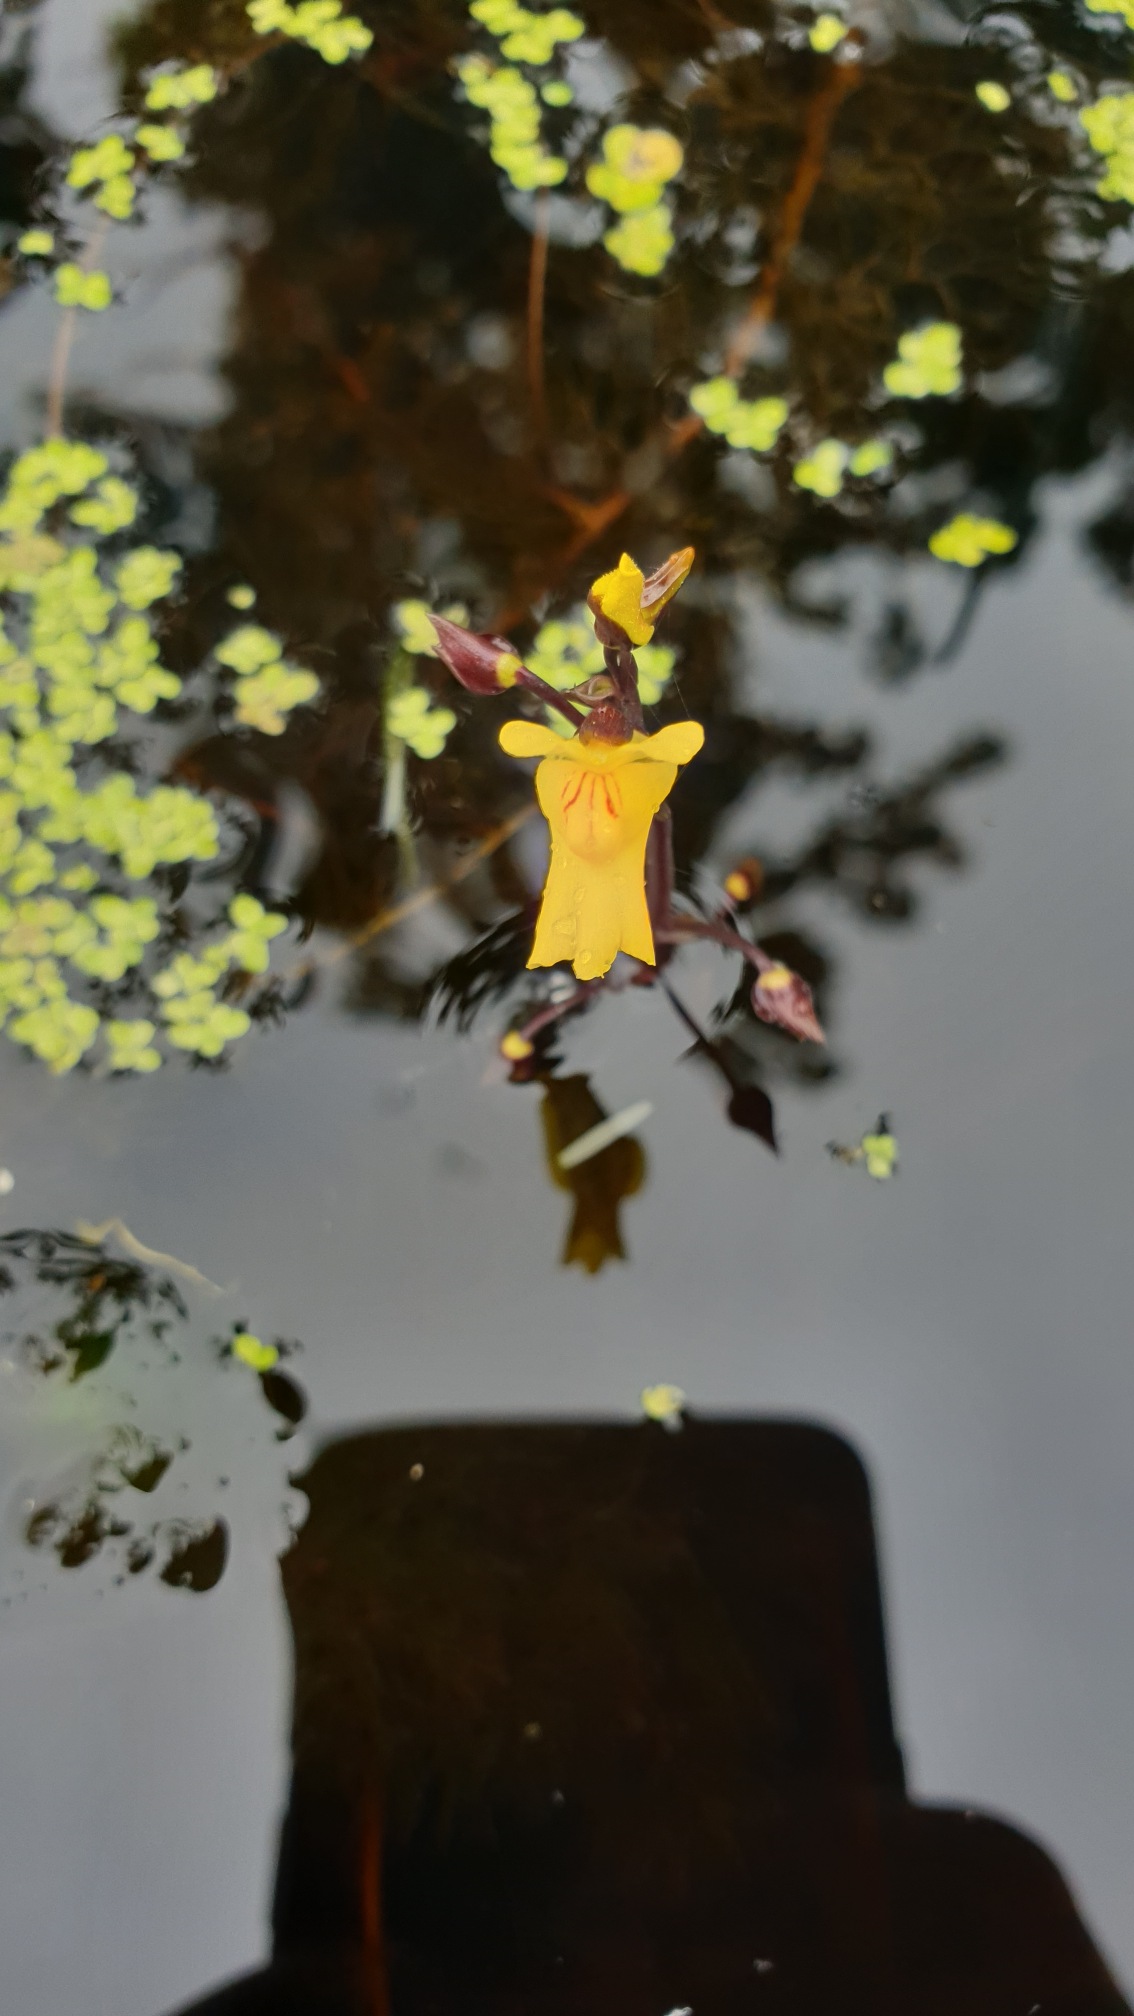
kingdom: Plantae
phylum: Tracheophyta
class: Magnoliopsida
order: Lamiales
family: Lentibulariaceae
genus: Utricularia
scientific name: Utricularia vulgaris
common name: Almindelig blærerod
